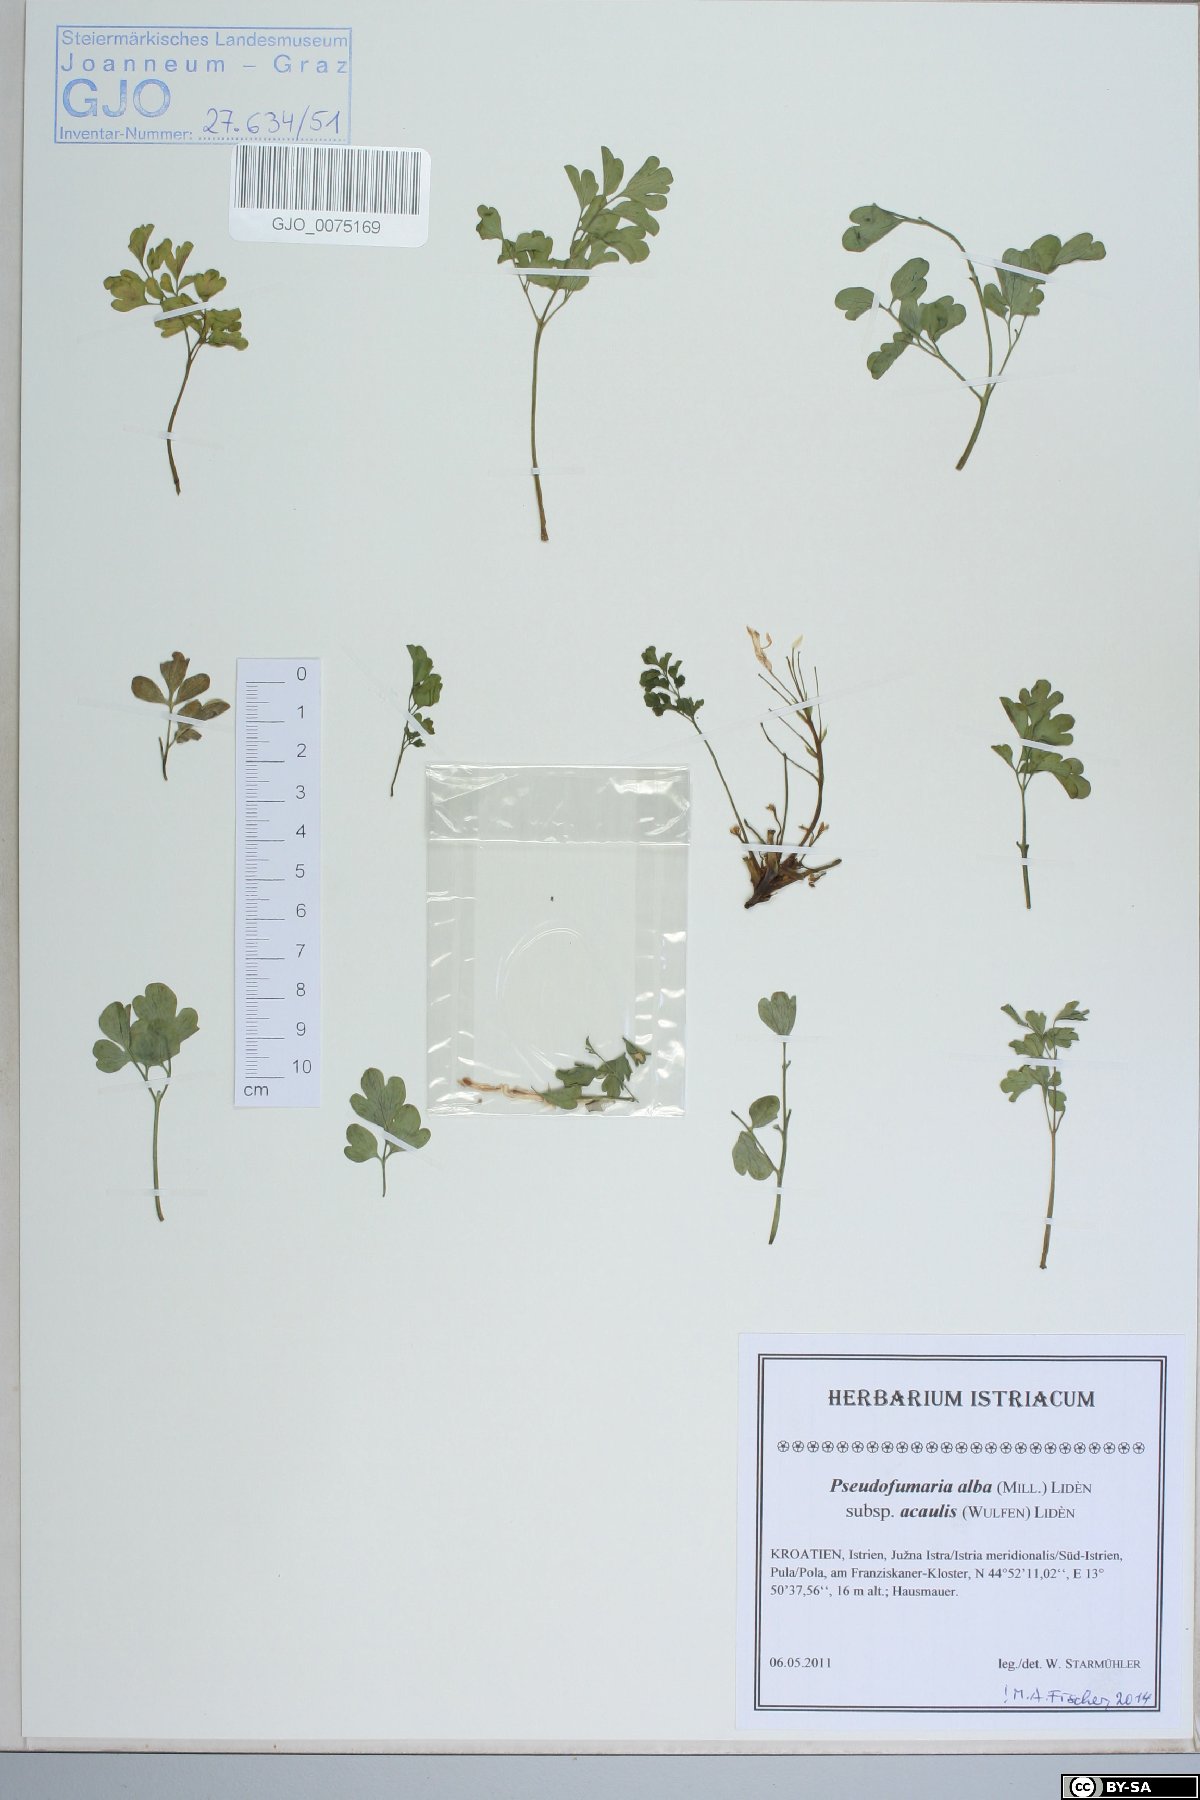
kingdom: Plantae
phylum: Tracheophyta
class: Magnoliopsida
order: Ranunculales
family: Papaveraceae
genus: Pseudofumaria
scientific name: Pseudofumaria alba
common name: Pale corydalis
